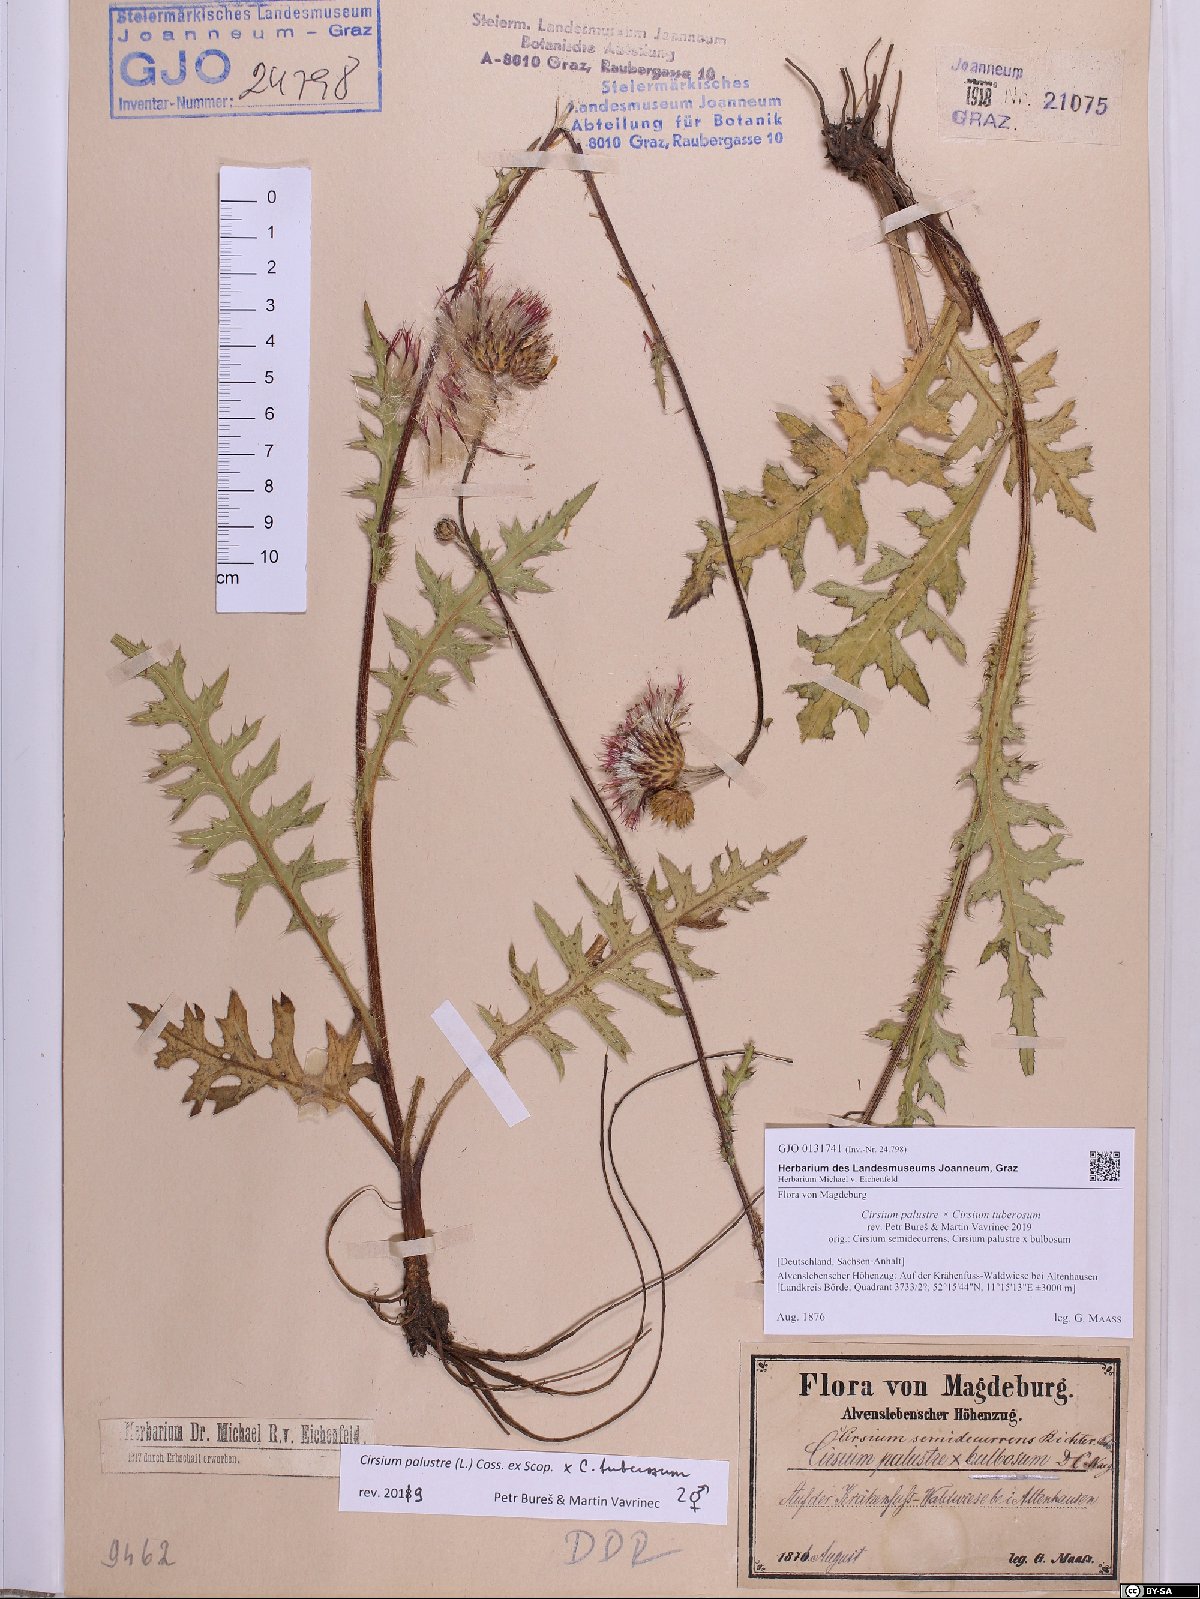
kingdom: Plantae
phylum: Tracheophyta
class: Magnoliopsida
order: Asterales
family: Asteraceae
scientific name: Asteraceae
